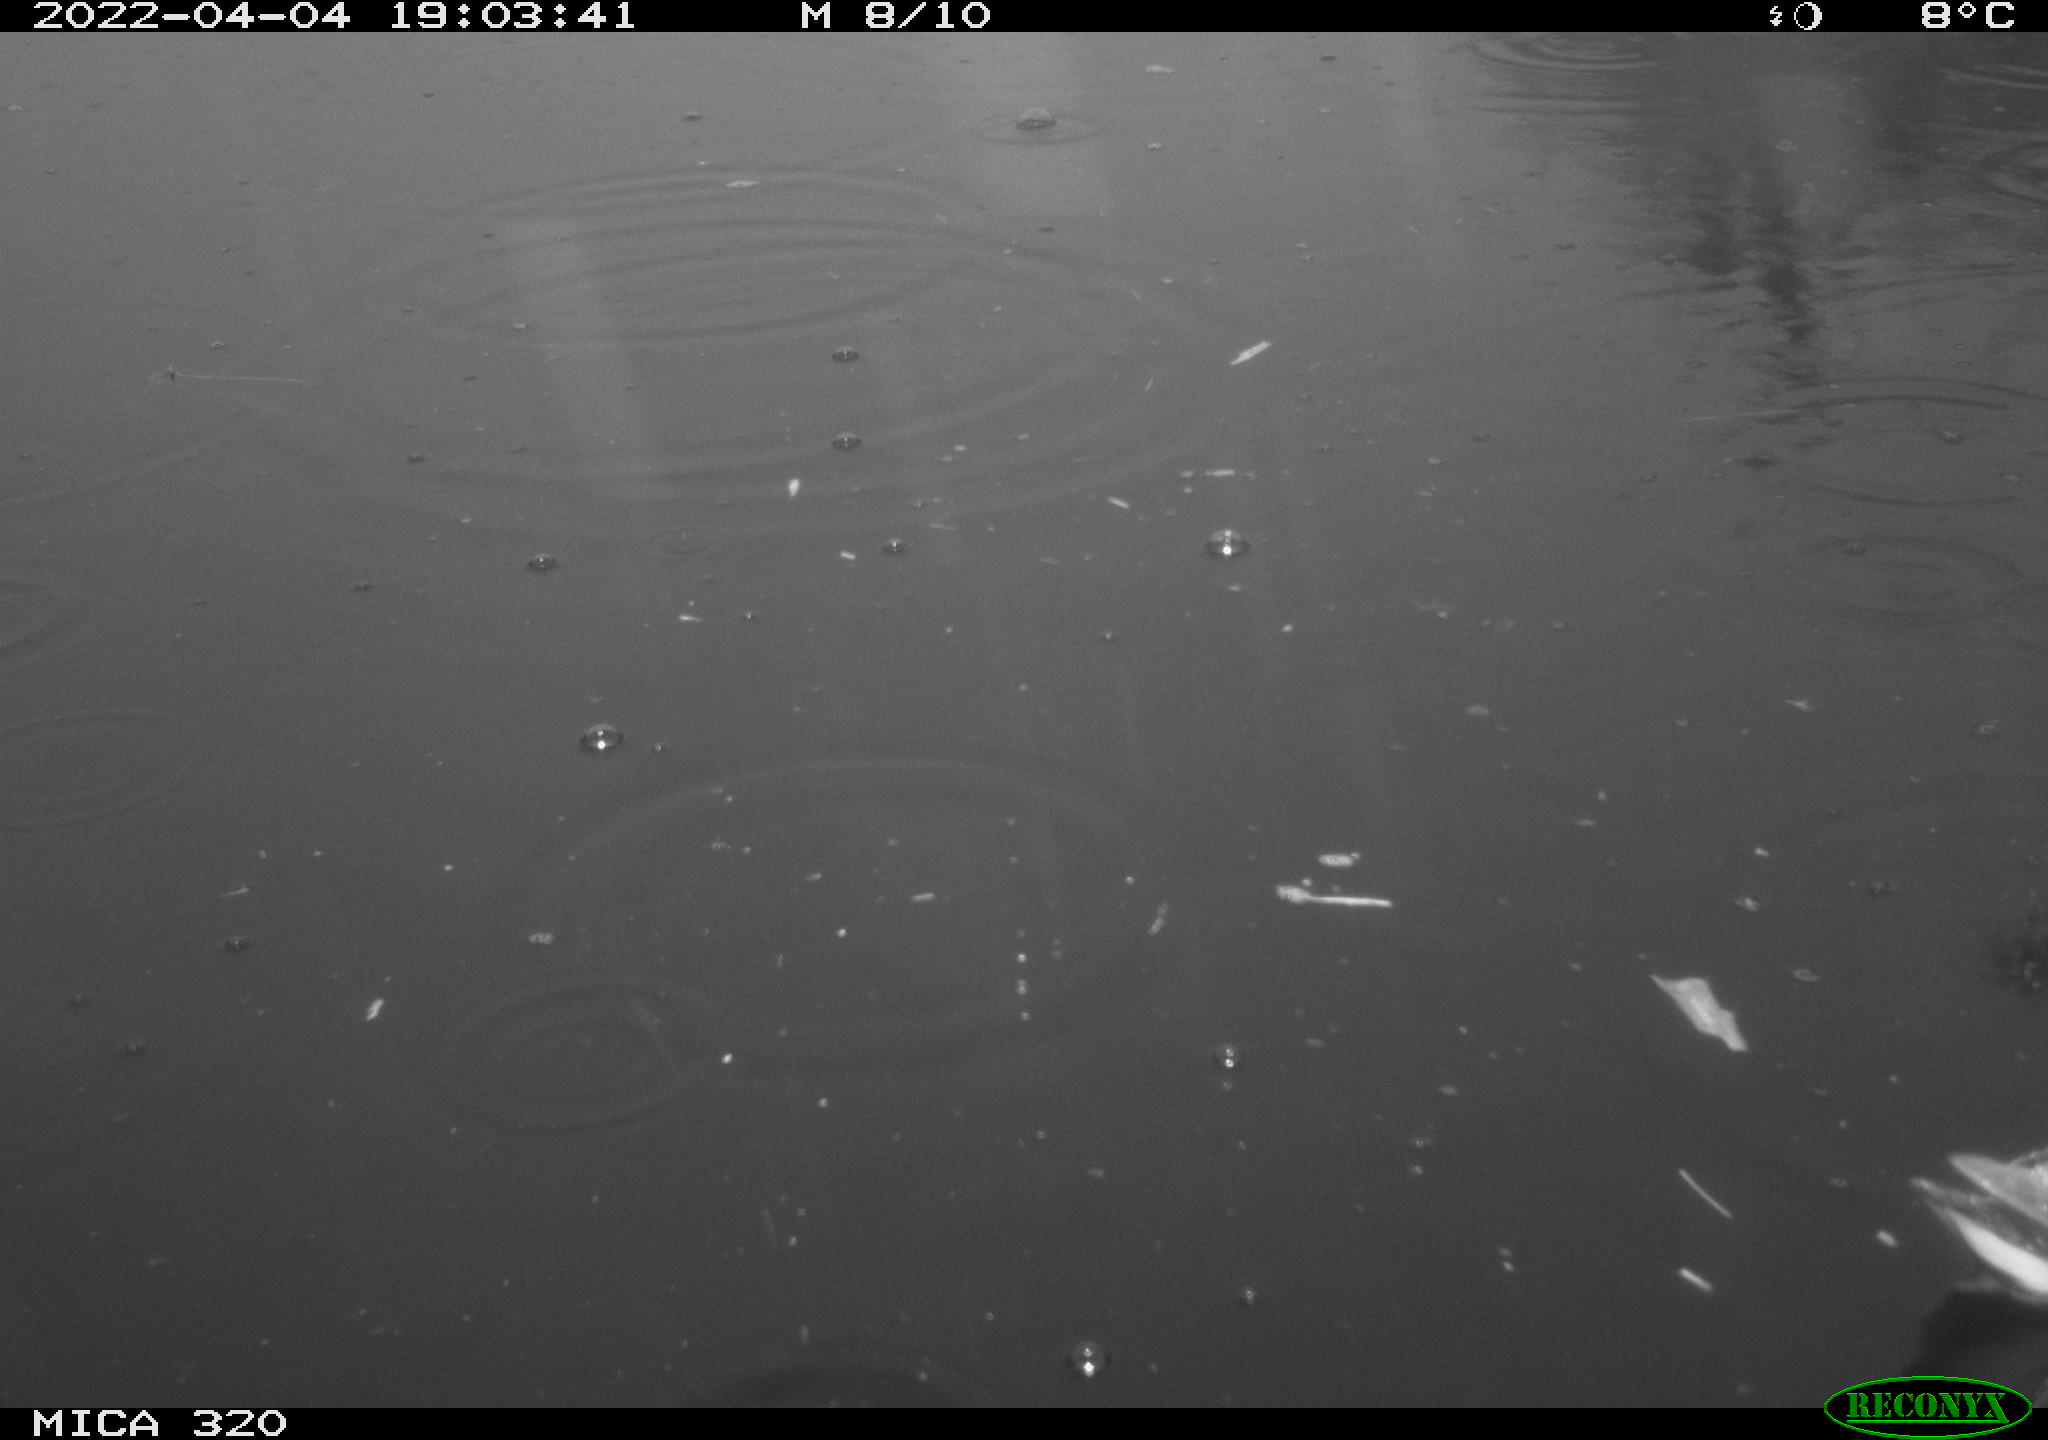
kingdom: Animalia
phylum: Chordata
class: Aves
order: Gruiformes
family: Rallidae
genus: Gallinula
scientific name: Gallinula chloropus
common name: Common moorhen
